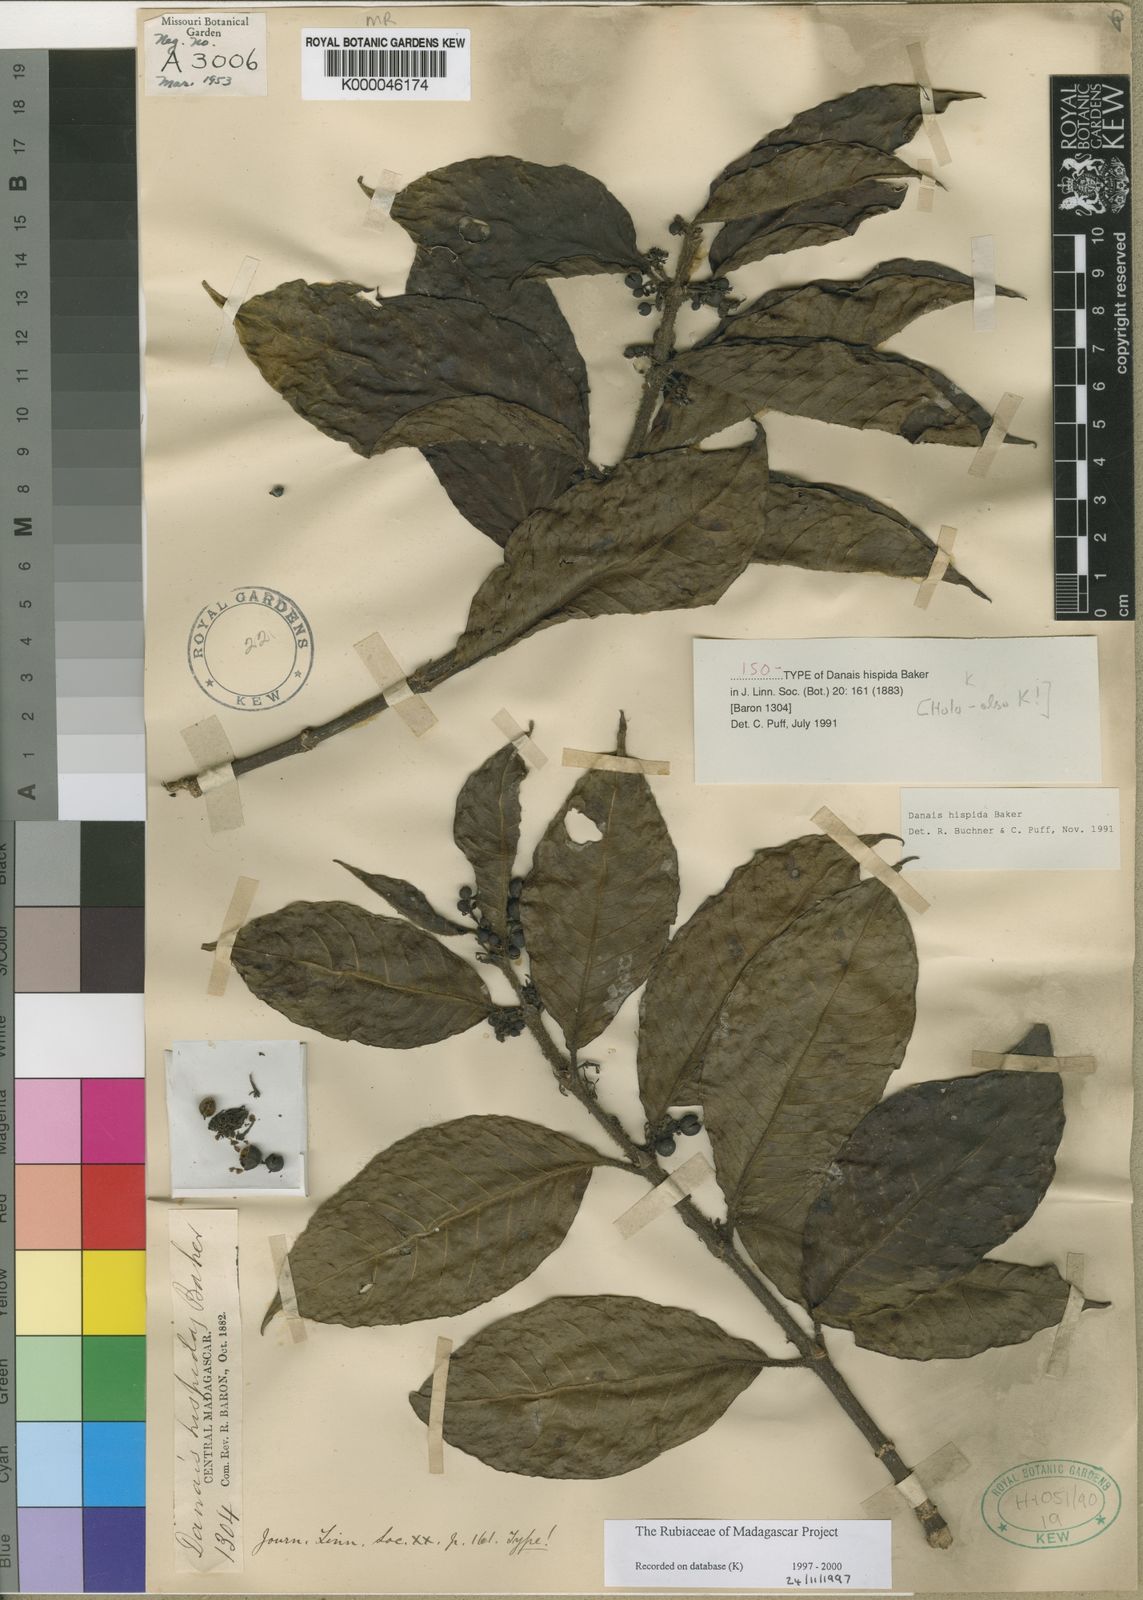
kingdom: Plantae
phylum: Tracheophyta
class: Magnoliopsida
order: Gentianales
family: Rubiaceae
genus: Danais
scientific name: Danais hispida
